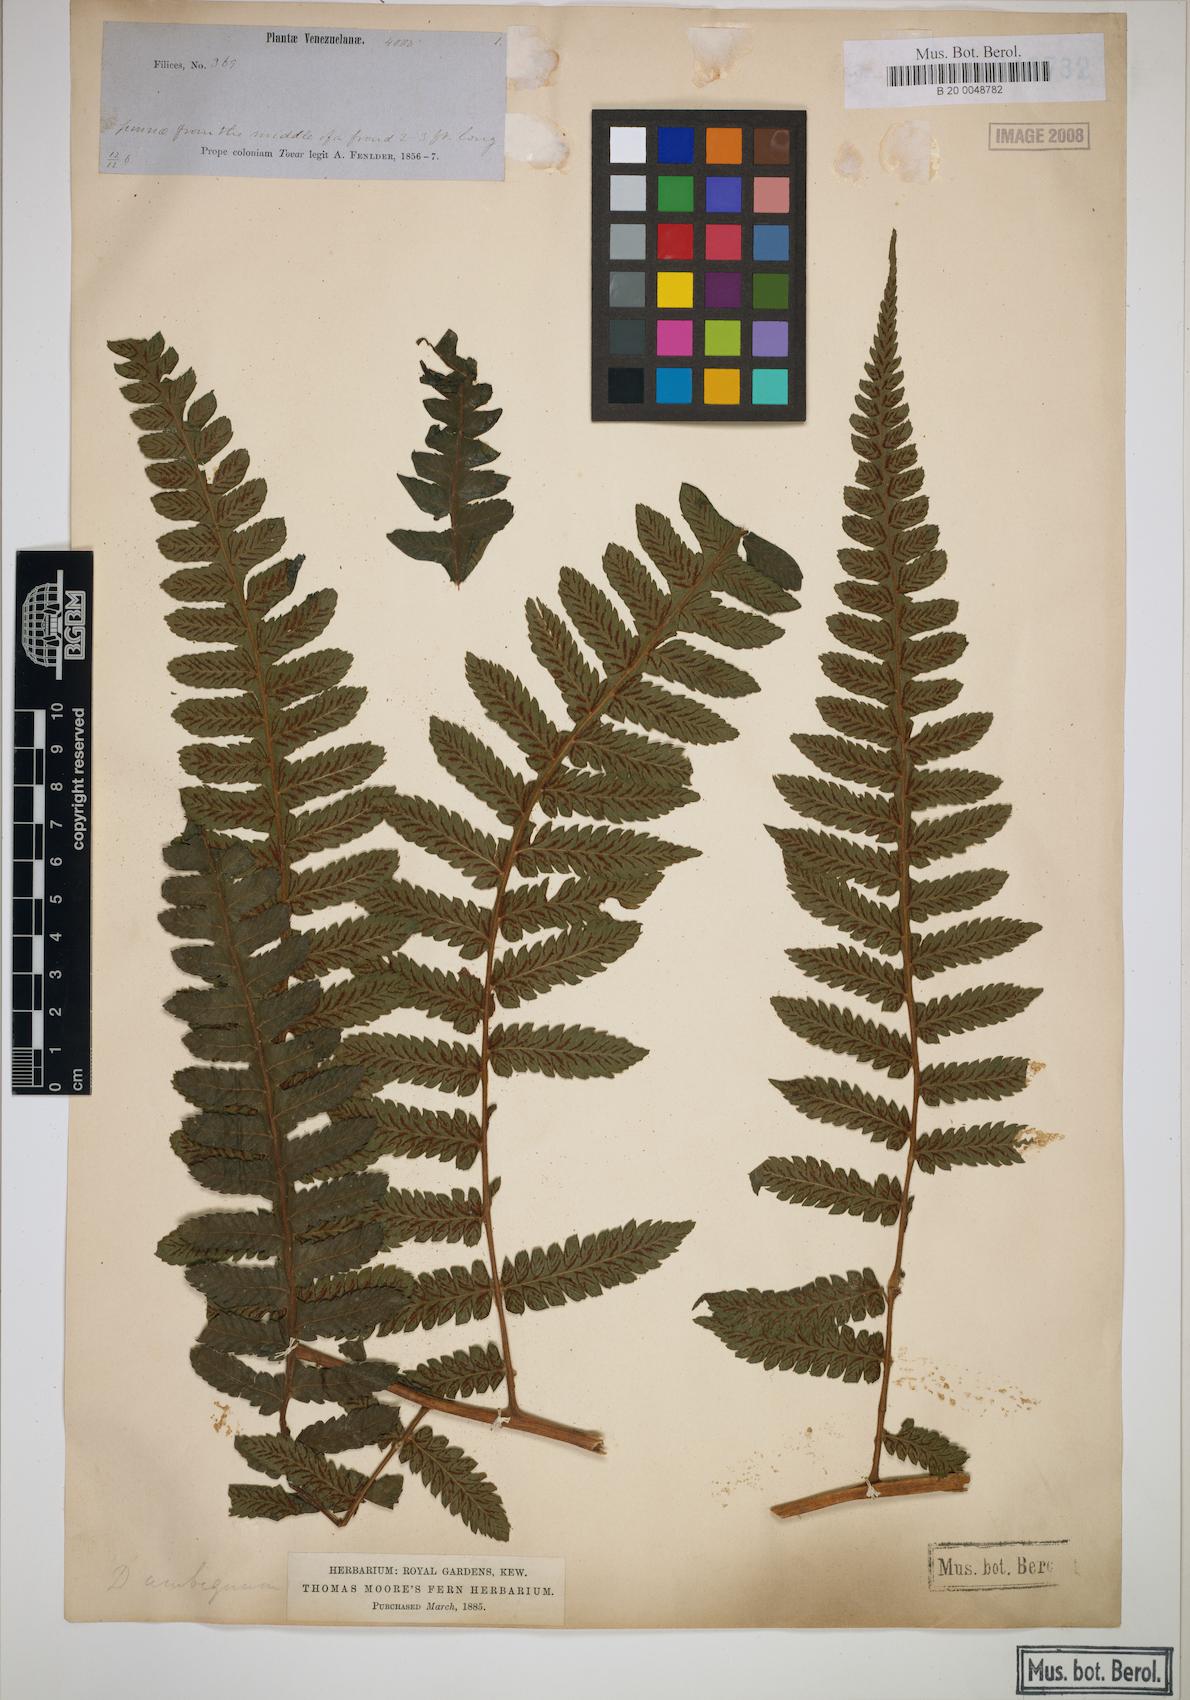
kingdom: Plantae
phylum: Tracheophyta
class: Polypodiopsida
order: Polypodiales
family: Athyriaceae
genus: Diplazium
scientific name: Diplazium striatum
